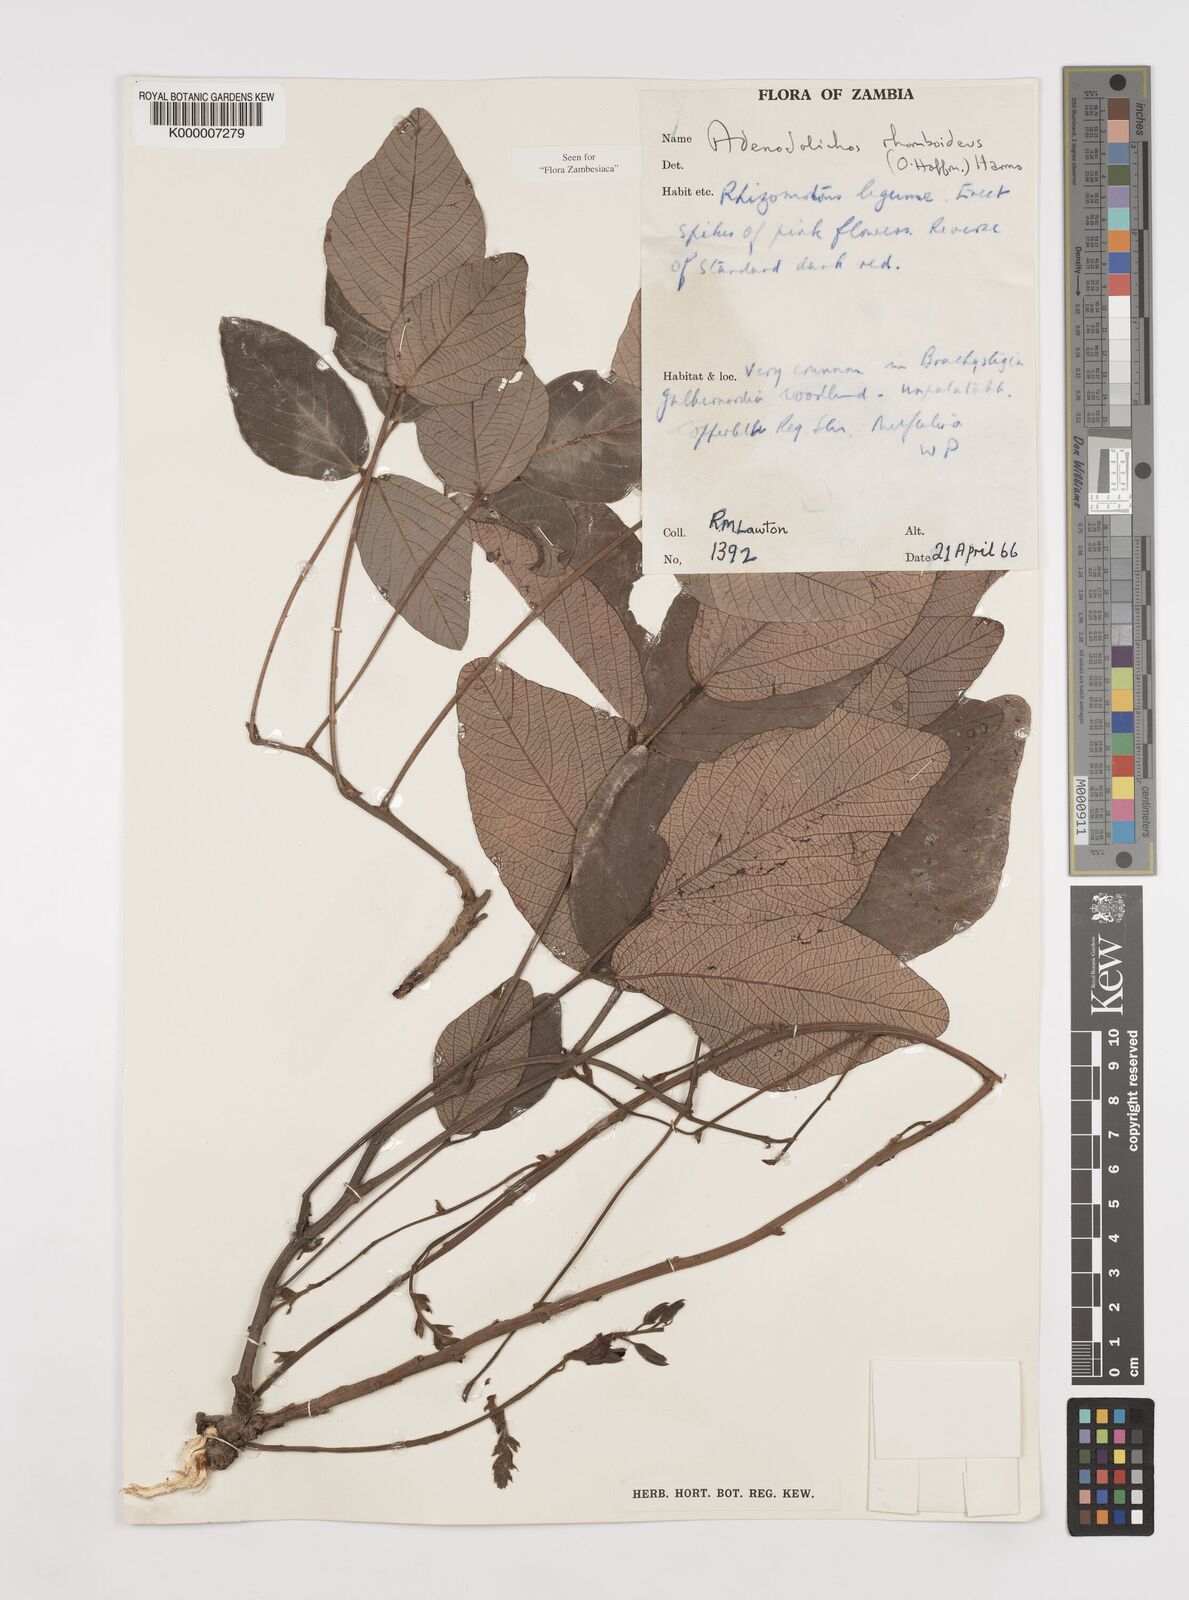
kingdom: Plantae
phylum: Tracheophyta
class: Magnoliopsida
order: Fabales
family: Fabaceae
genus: Adenodolichos
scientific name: Adenodolichos rhomboideus
